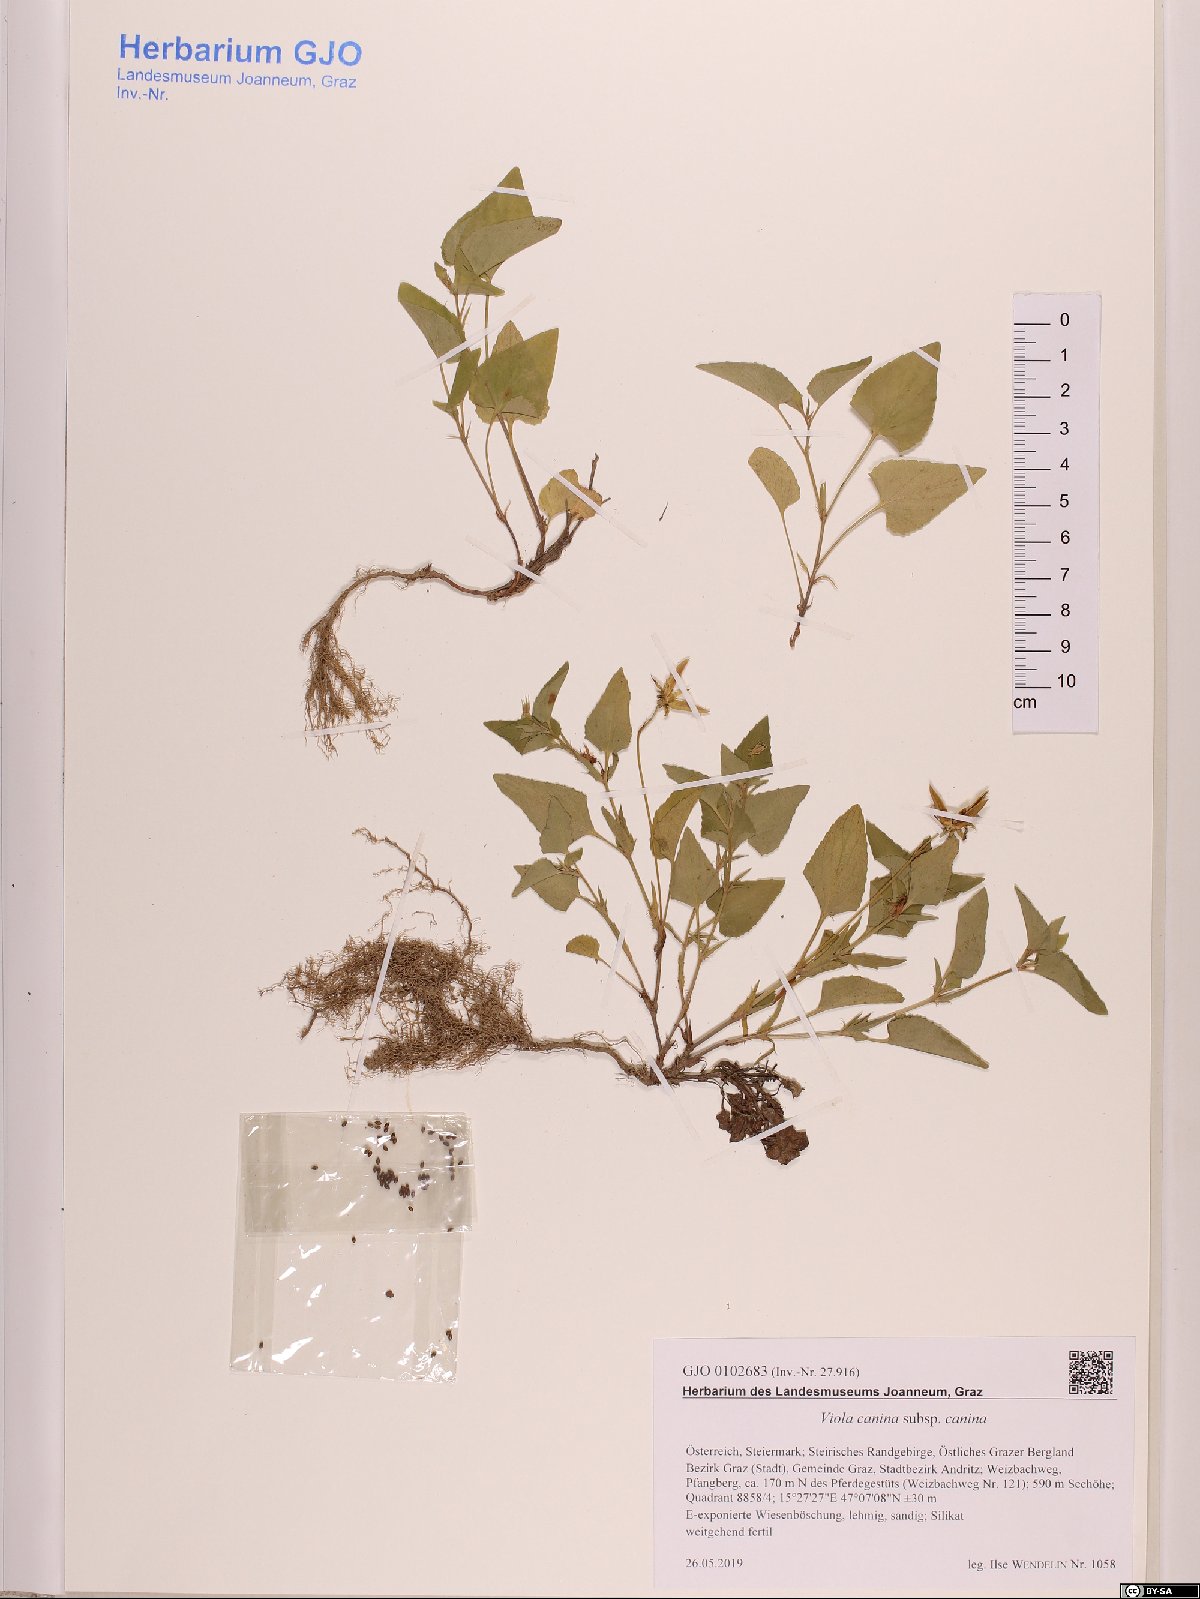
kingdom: Plantae
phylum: Tracheophyta
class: Magnoliopsida
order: Malpighiales
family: Violaceae
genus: Viola
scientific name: Viola canina
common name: Heath dog-violet
